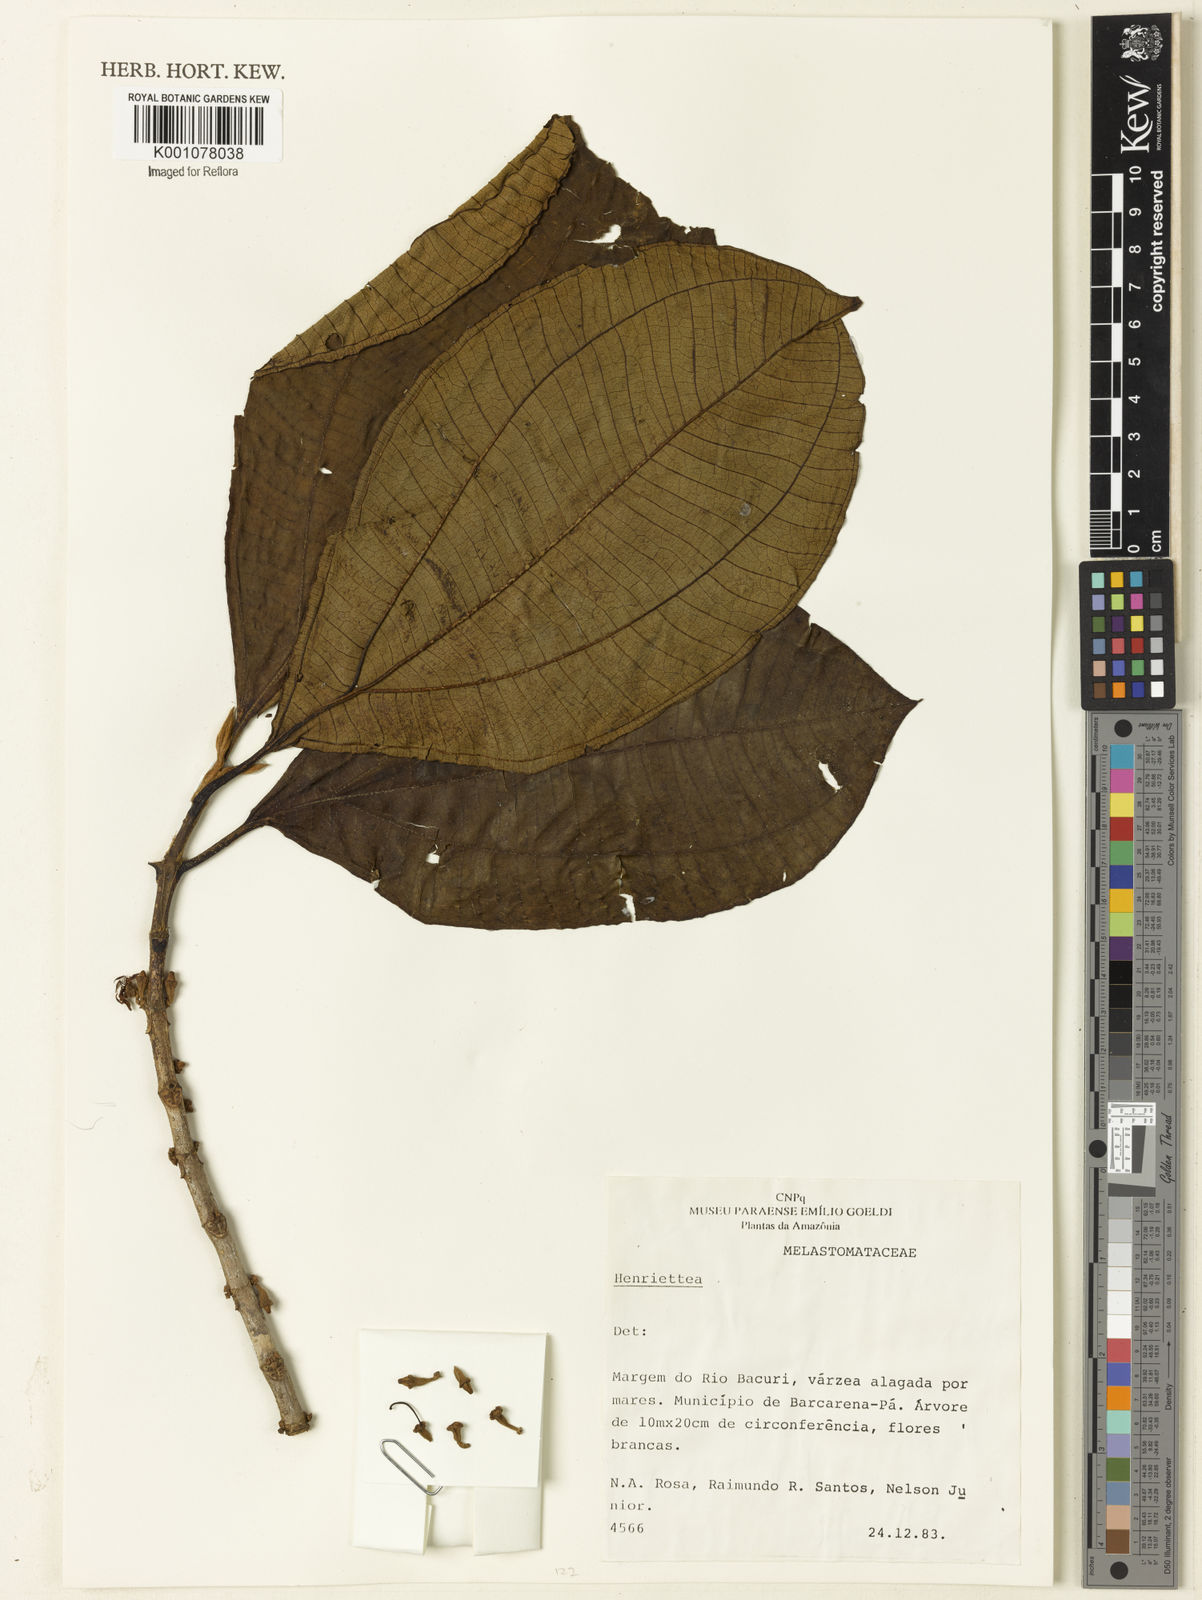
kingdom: Plantae
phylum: Tracheophyta
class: Magnoliopsida
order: Myrtales
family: Melastomataceae
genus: Henriettea
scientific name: Henriettea
